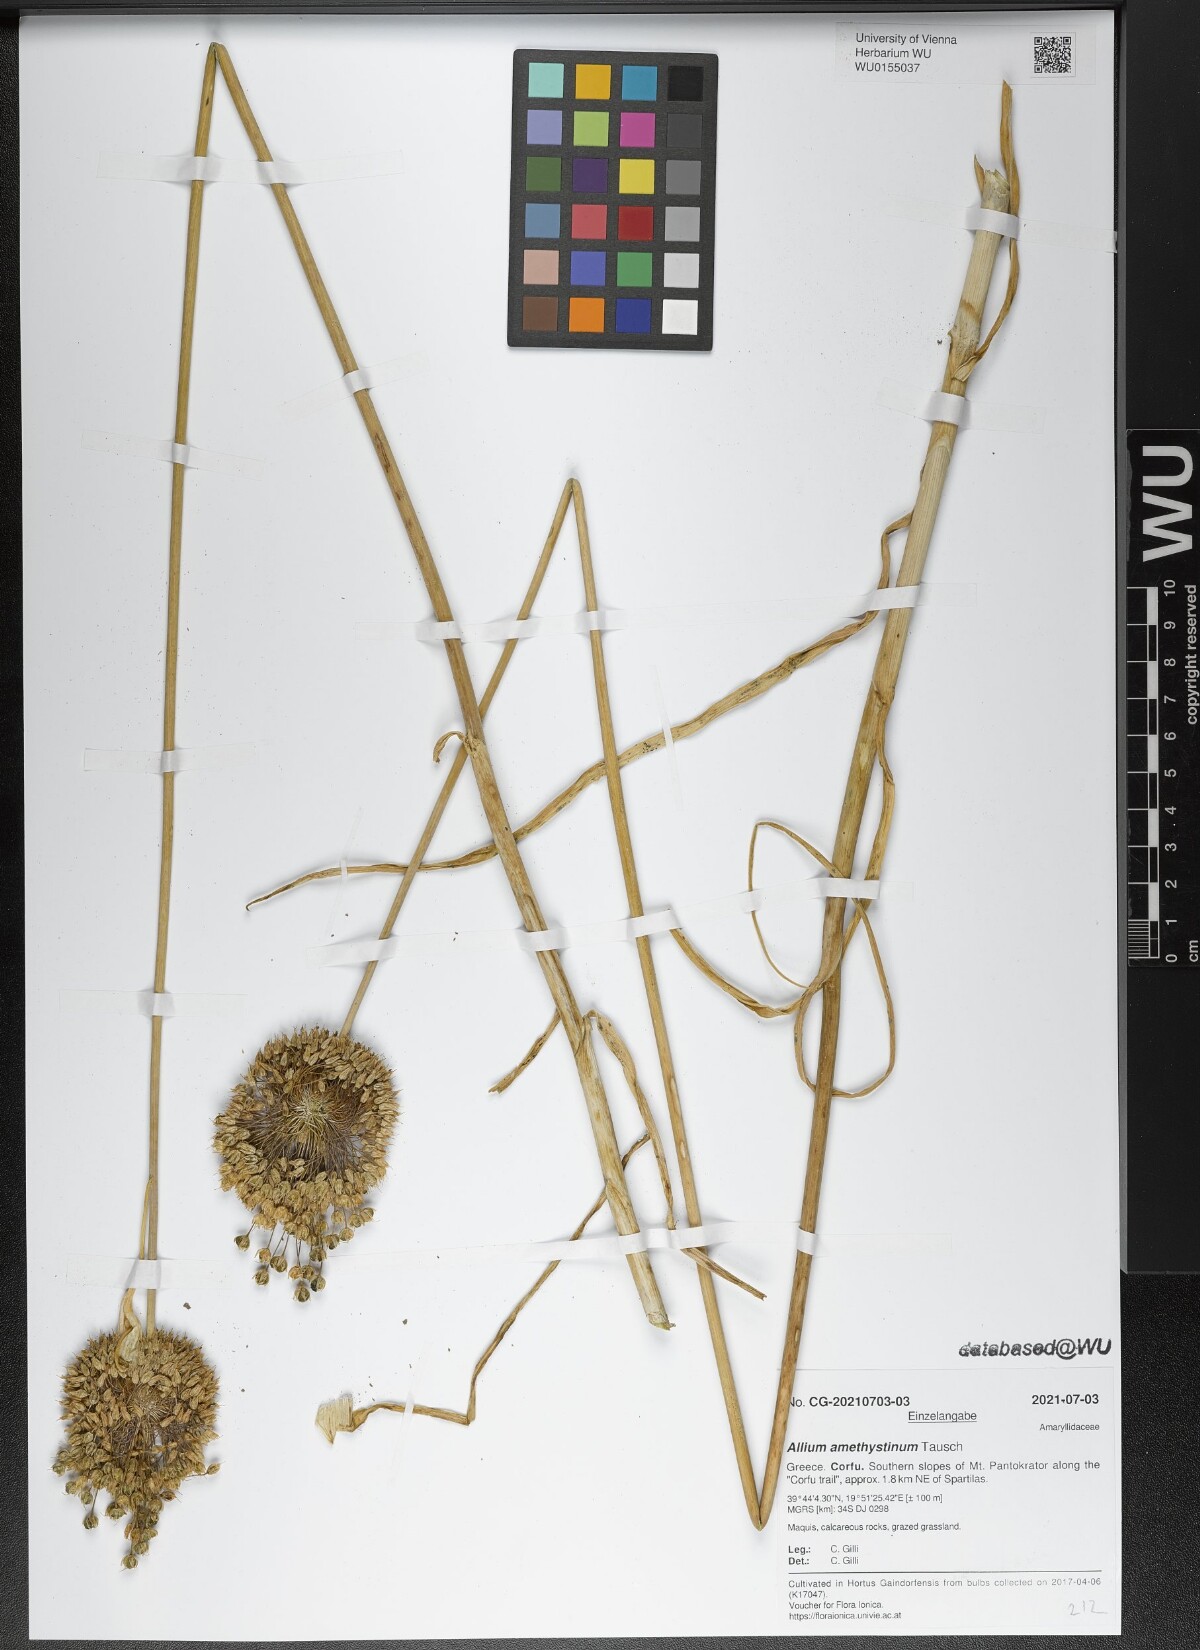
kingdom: Plantae
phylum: Tracheophyta
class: Liliopsida
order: Asparagales
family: Amaryllidaceae
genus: Allium
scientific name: Allium amethystinum
